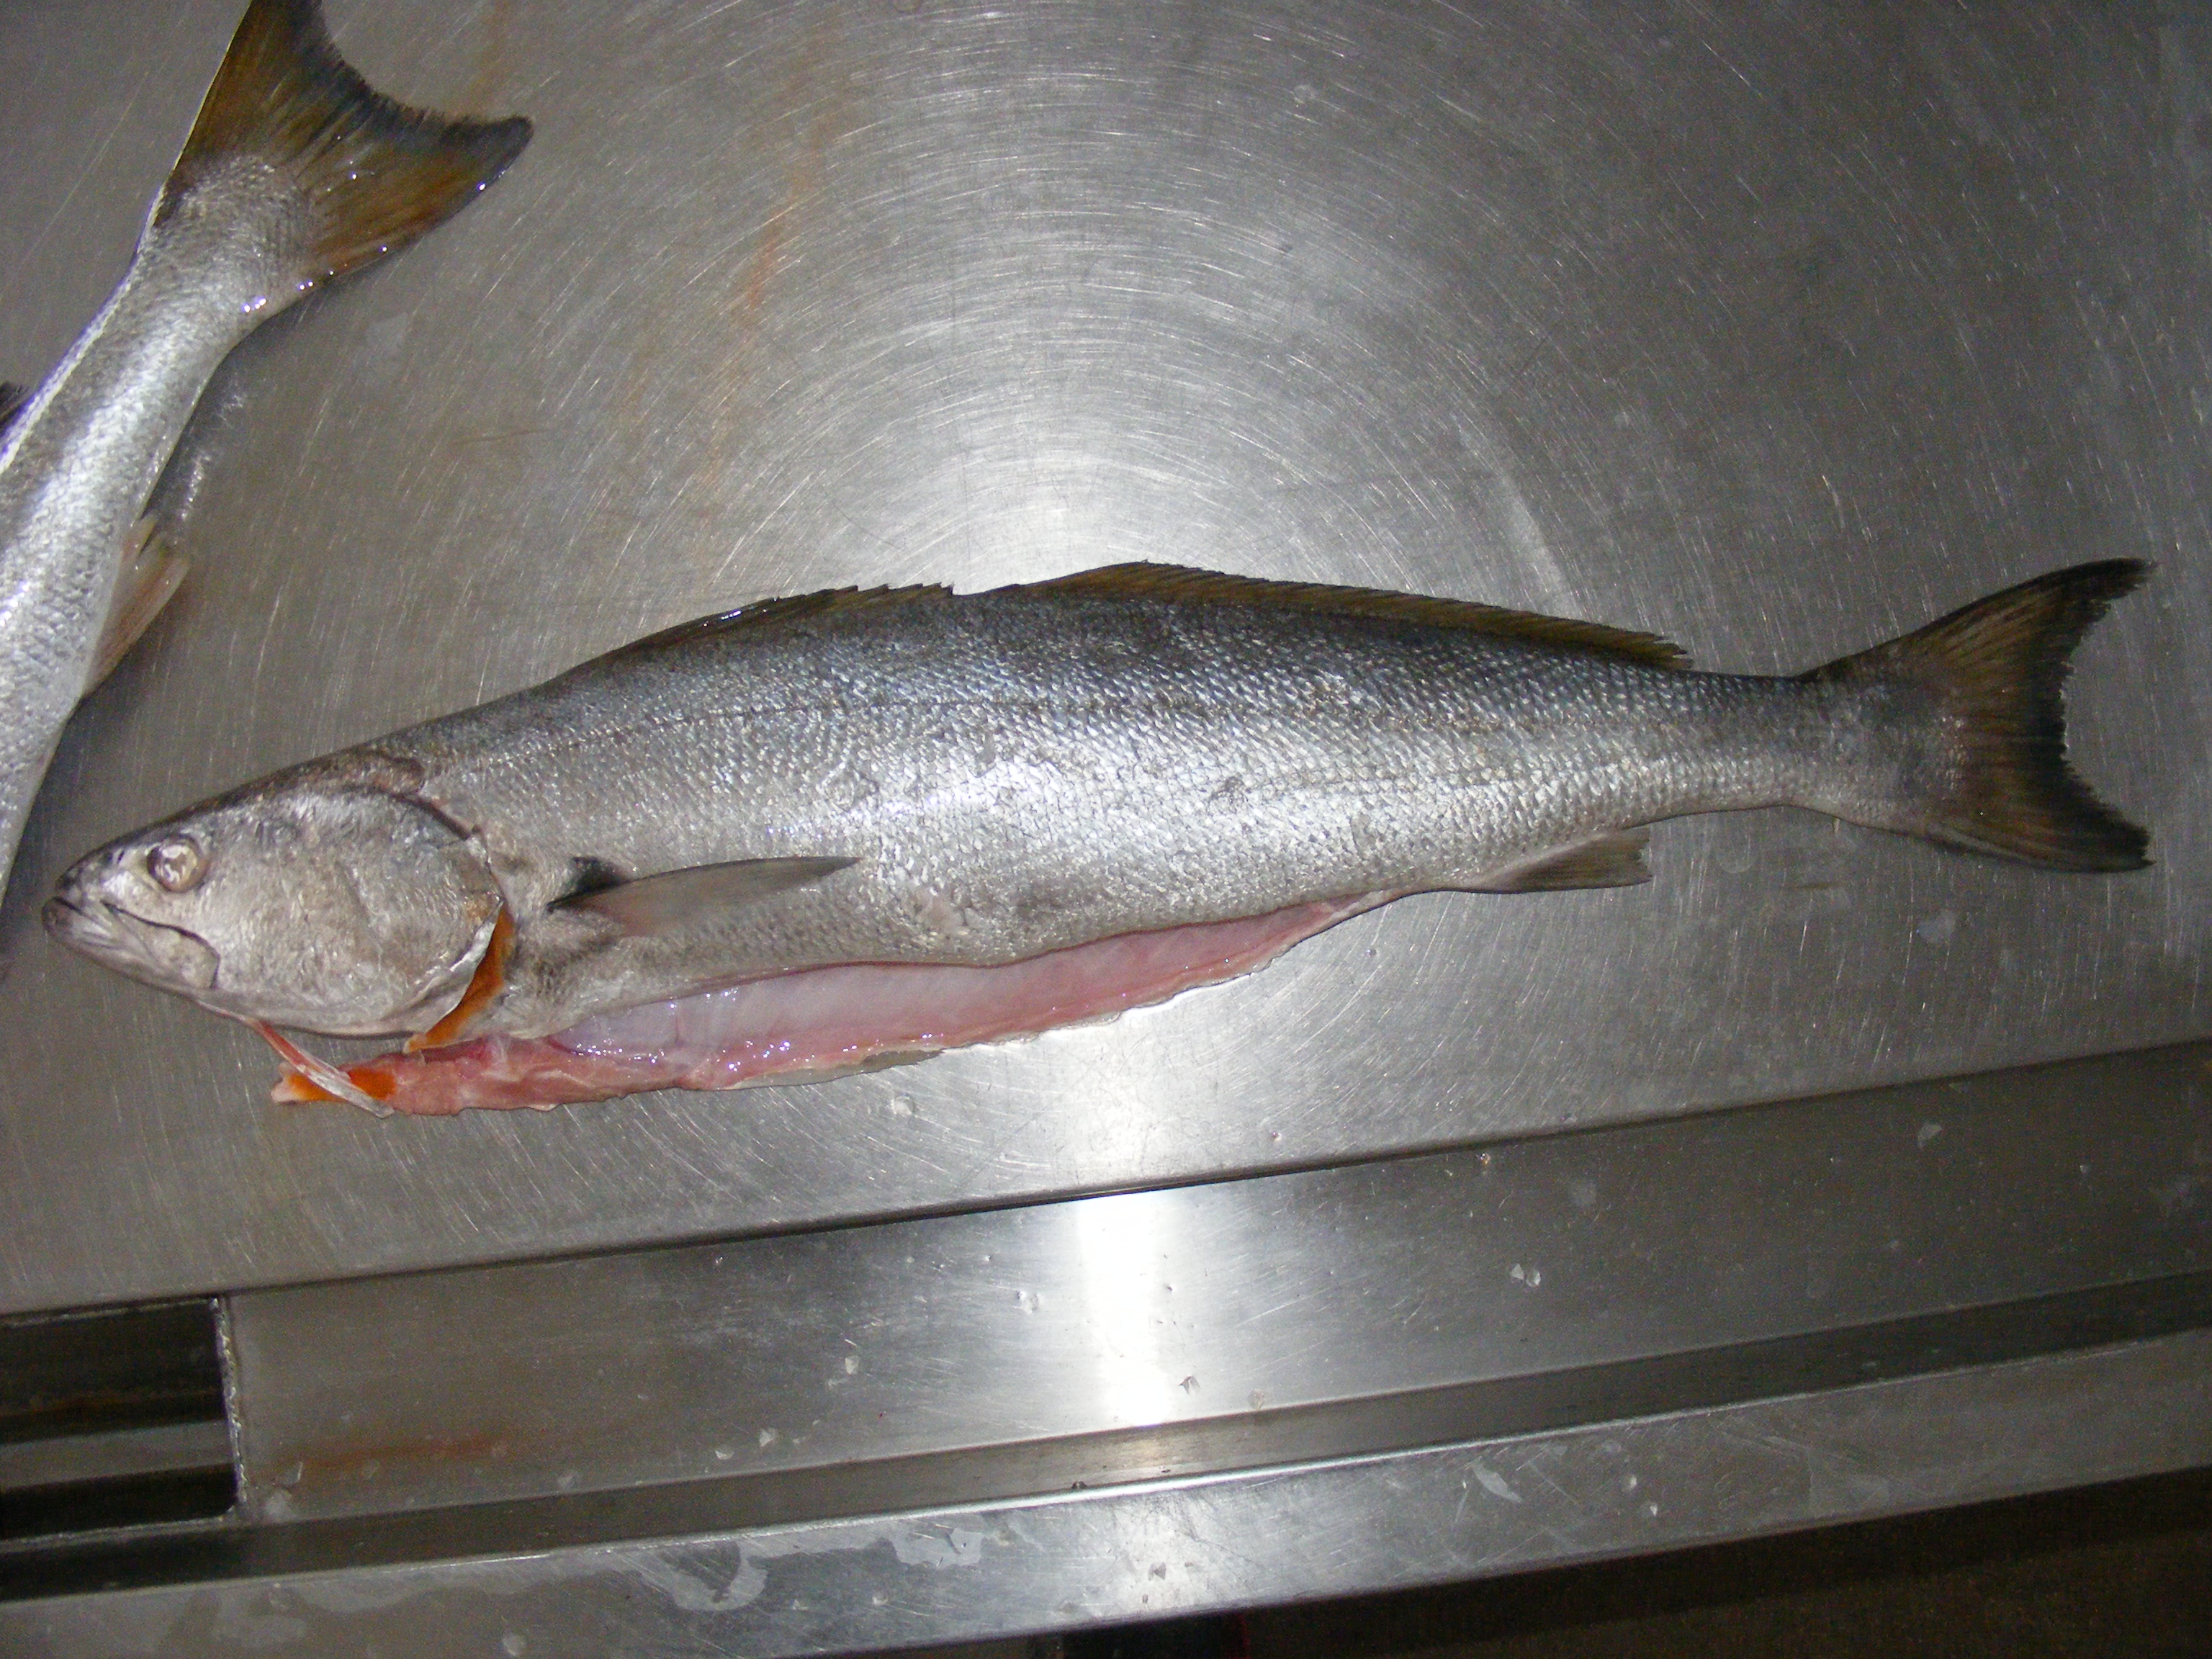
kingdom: Animalia
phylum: Chordata
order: Perciformes
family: Sciaenidae
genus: Atractoscion
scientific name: Atractoscion aequidens
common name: Geelbeck croaker
